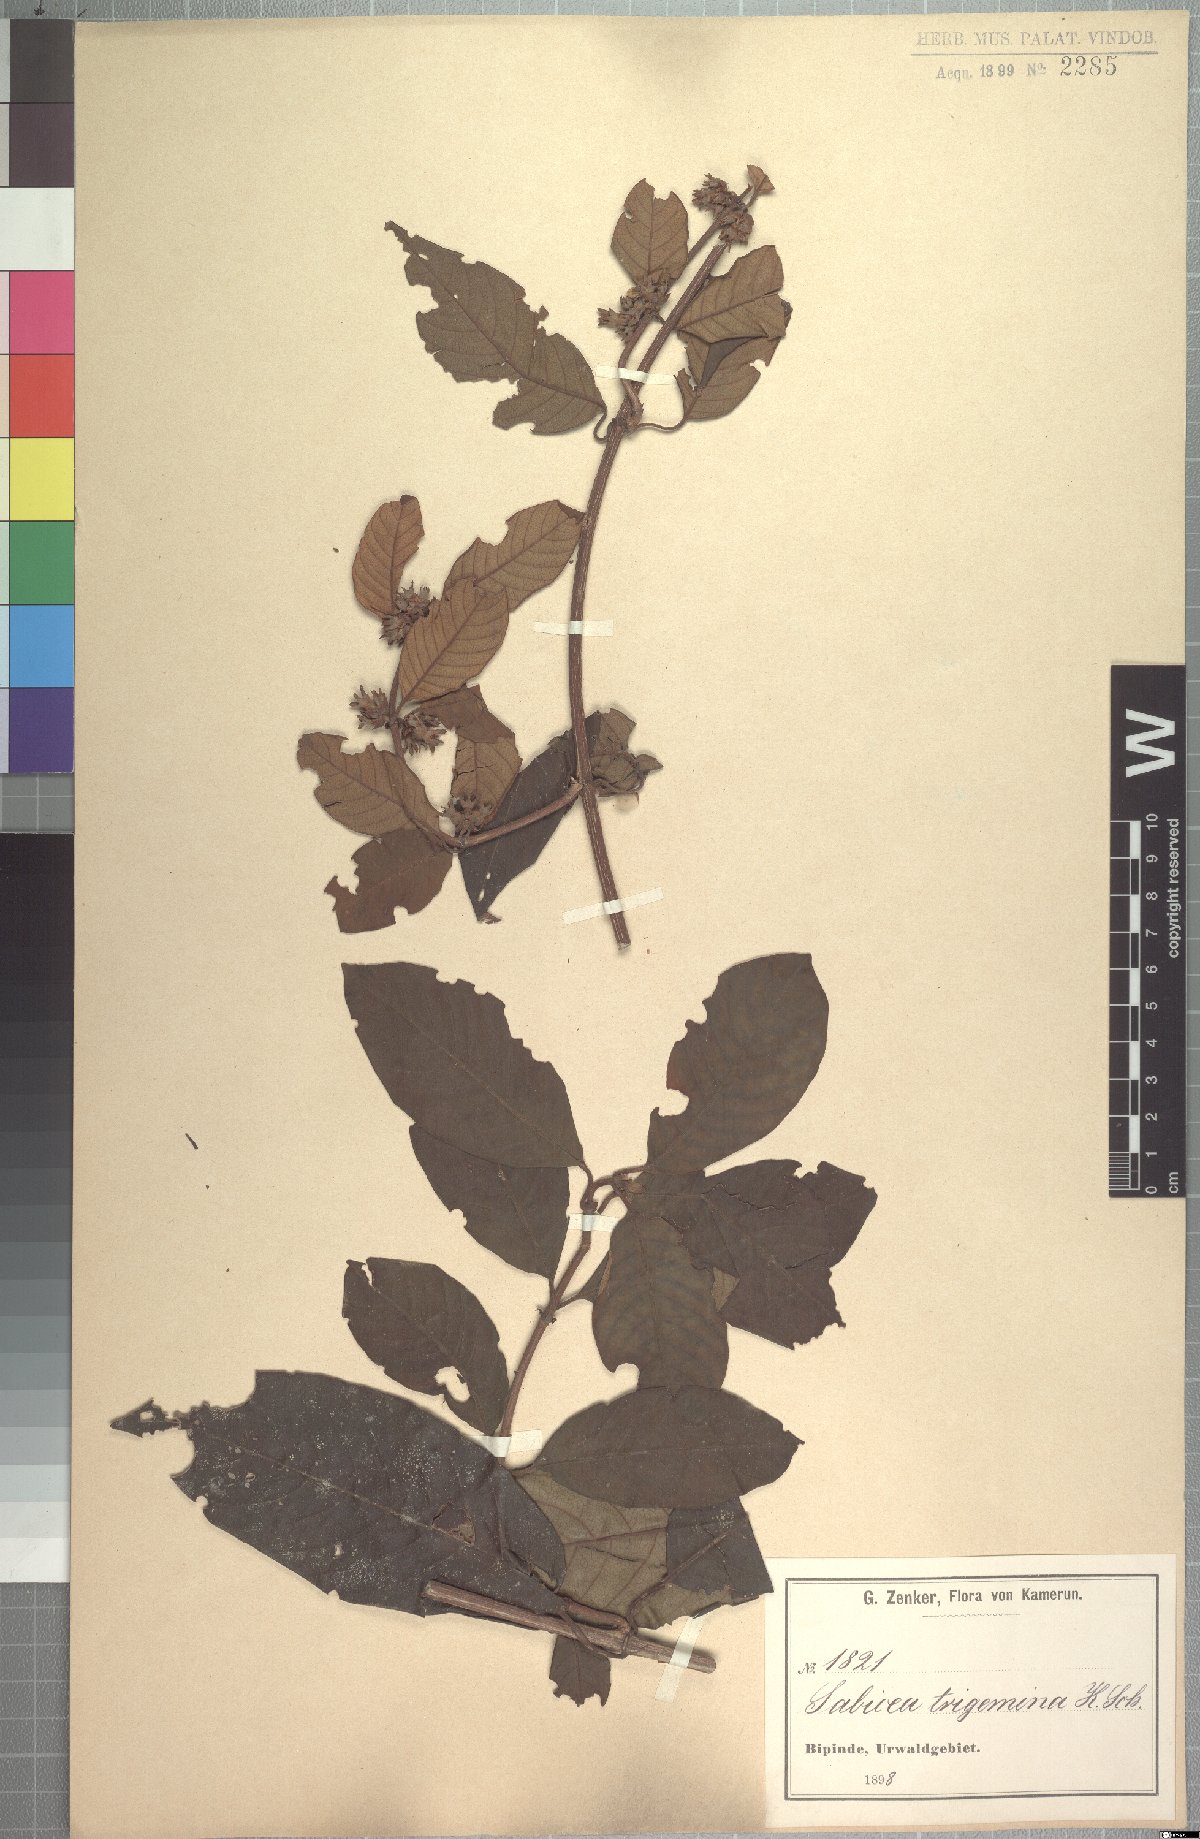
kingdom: Plantae
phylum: Tracheophyta
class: Magnoliopsida
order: Gentianales
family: Rubiaceae
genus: Sabicea
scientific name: Sabicea trigemina
